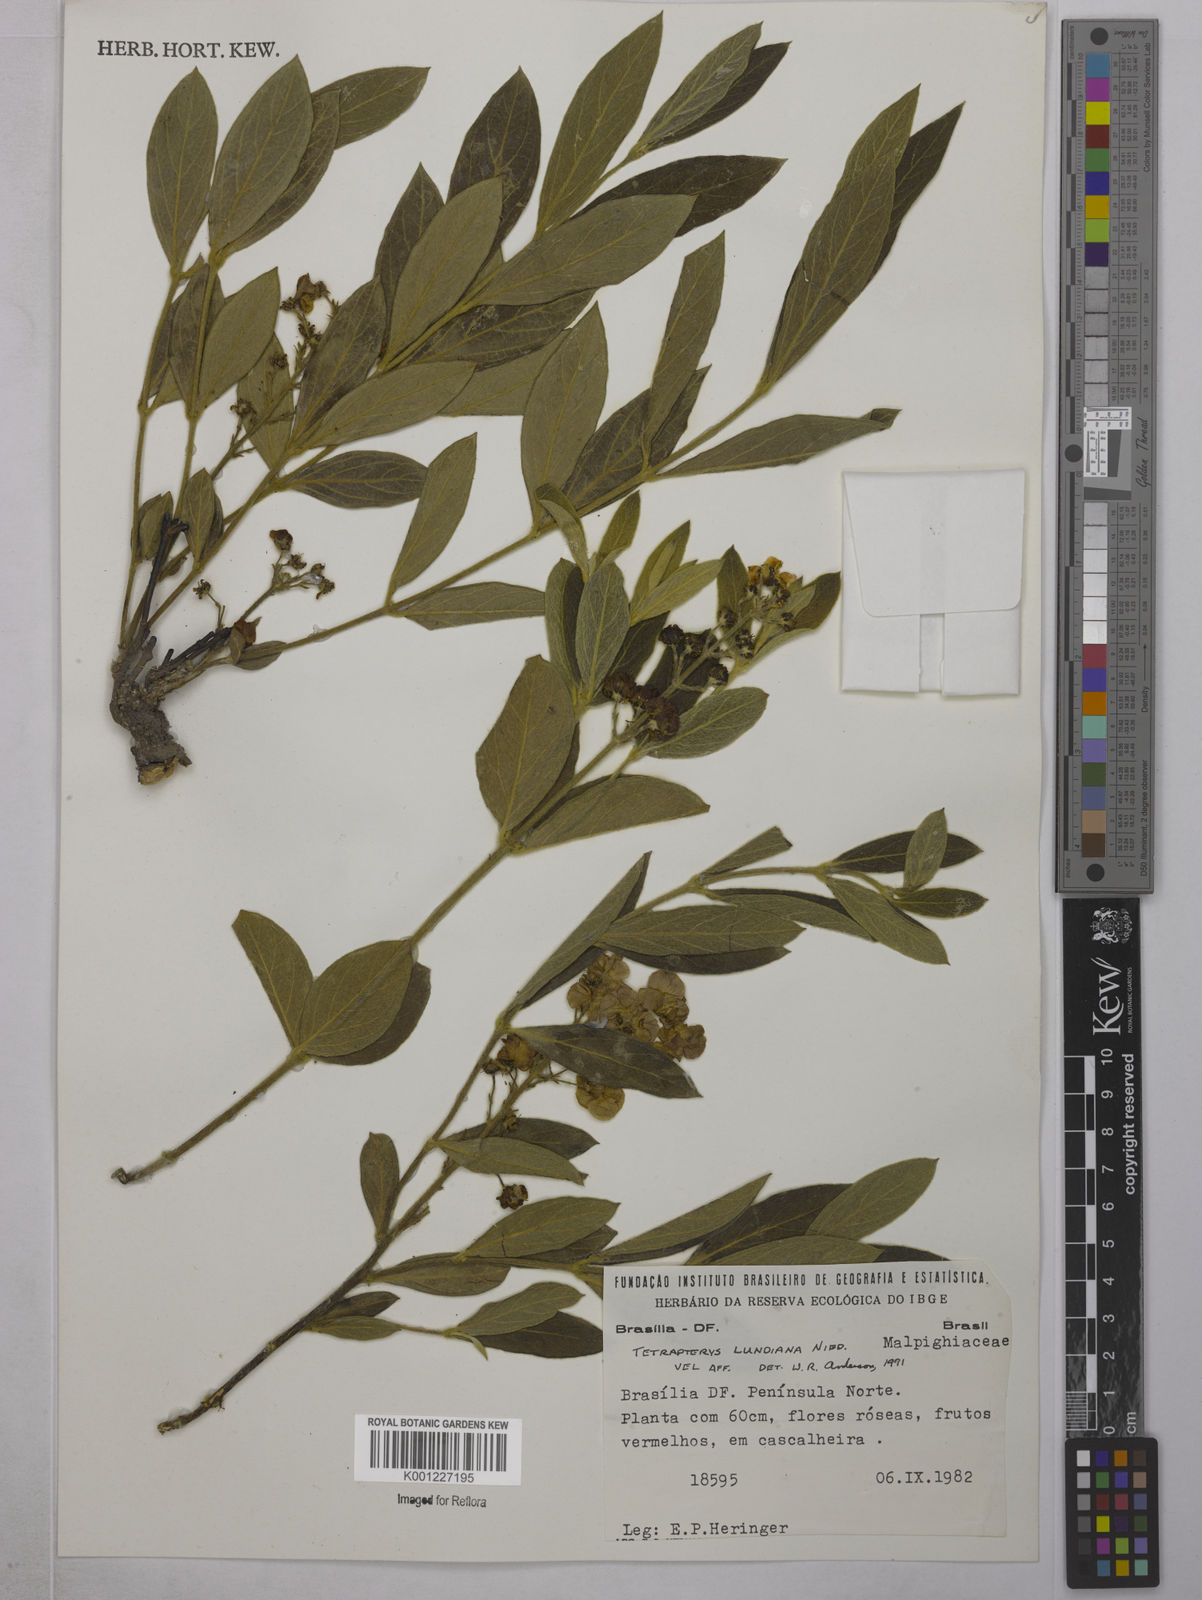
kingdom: Plantae
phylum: Tracheophyta
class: Magnoliopsida
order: Malpighiales
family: Malpighiaceae
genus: Glicophyllum
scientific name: Glicophyllum ambiguum
